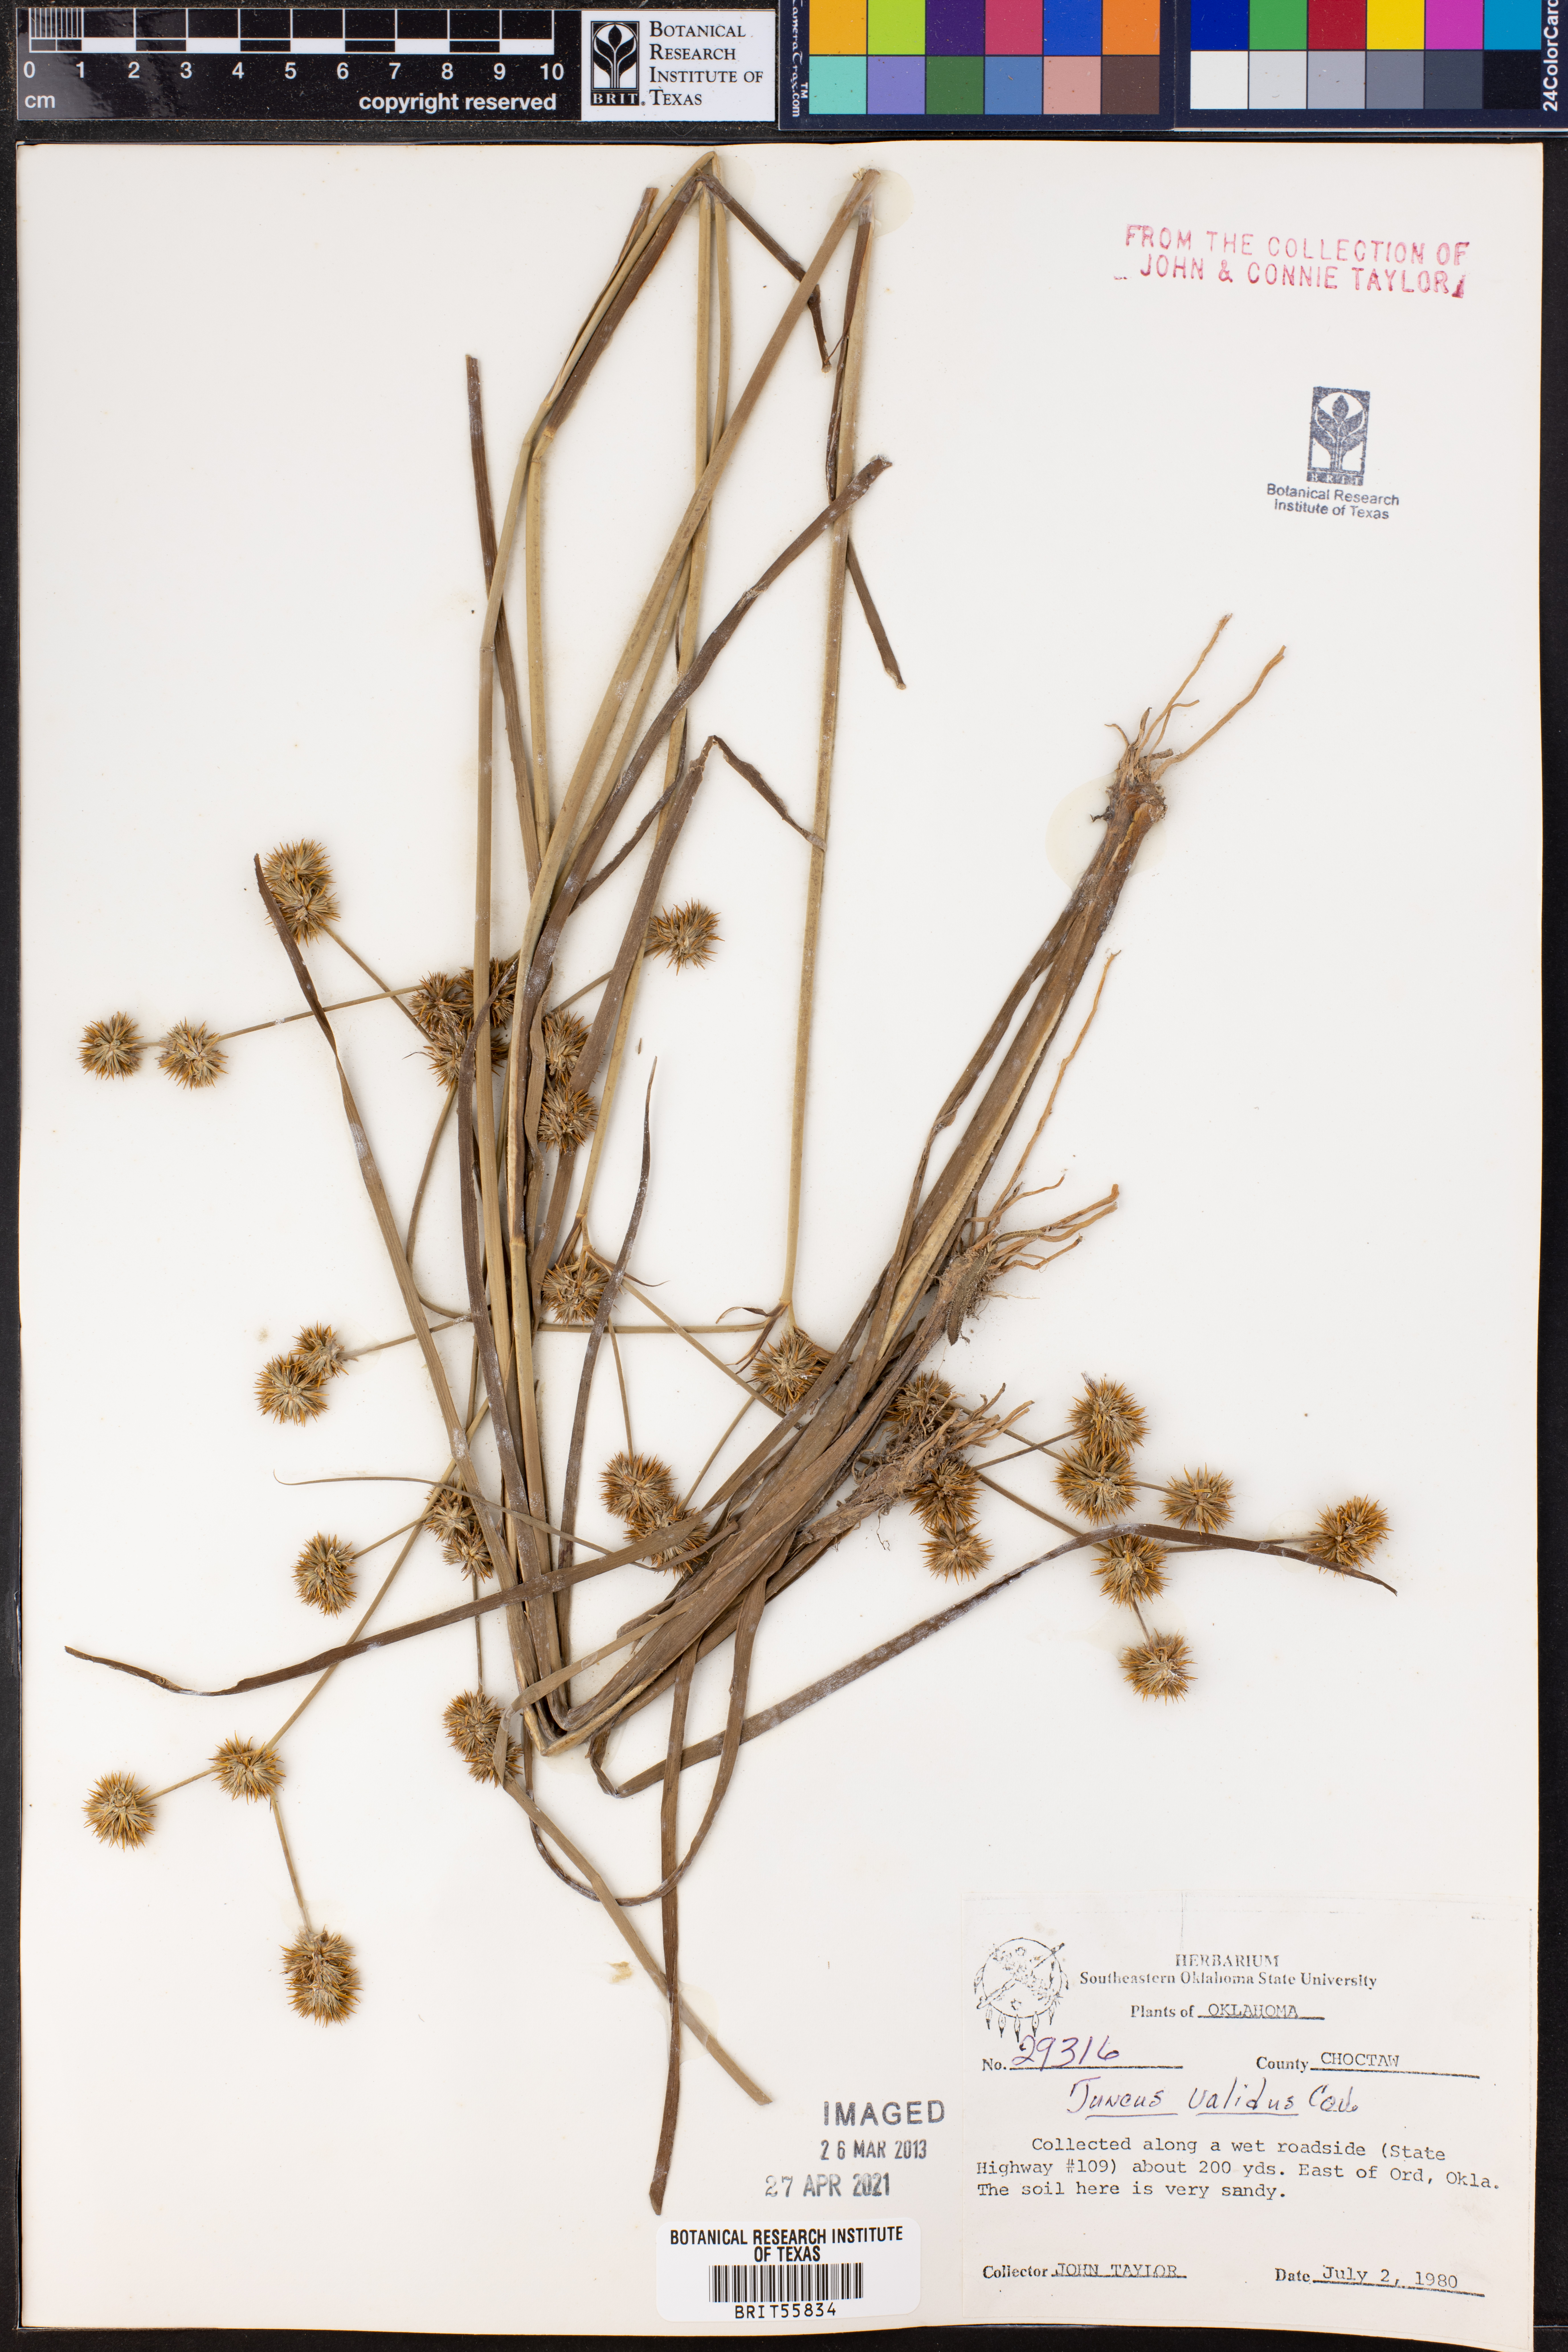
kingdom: Plantae
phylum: Tracheophyta
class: Liliopsida
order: Poales
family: Juncaceae
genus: Juncus
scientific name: Juncus validus
